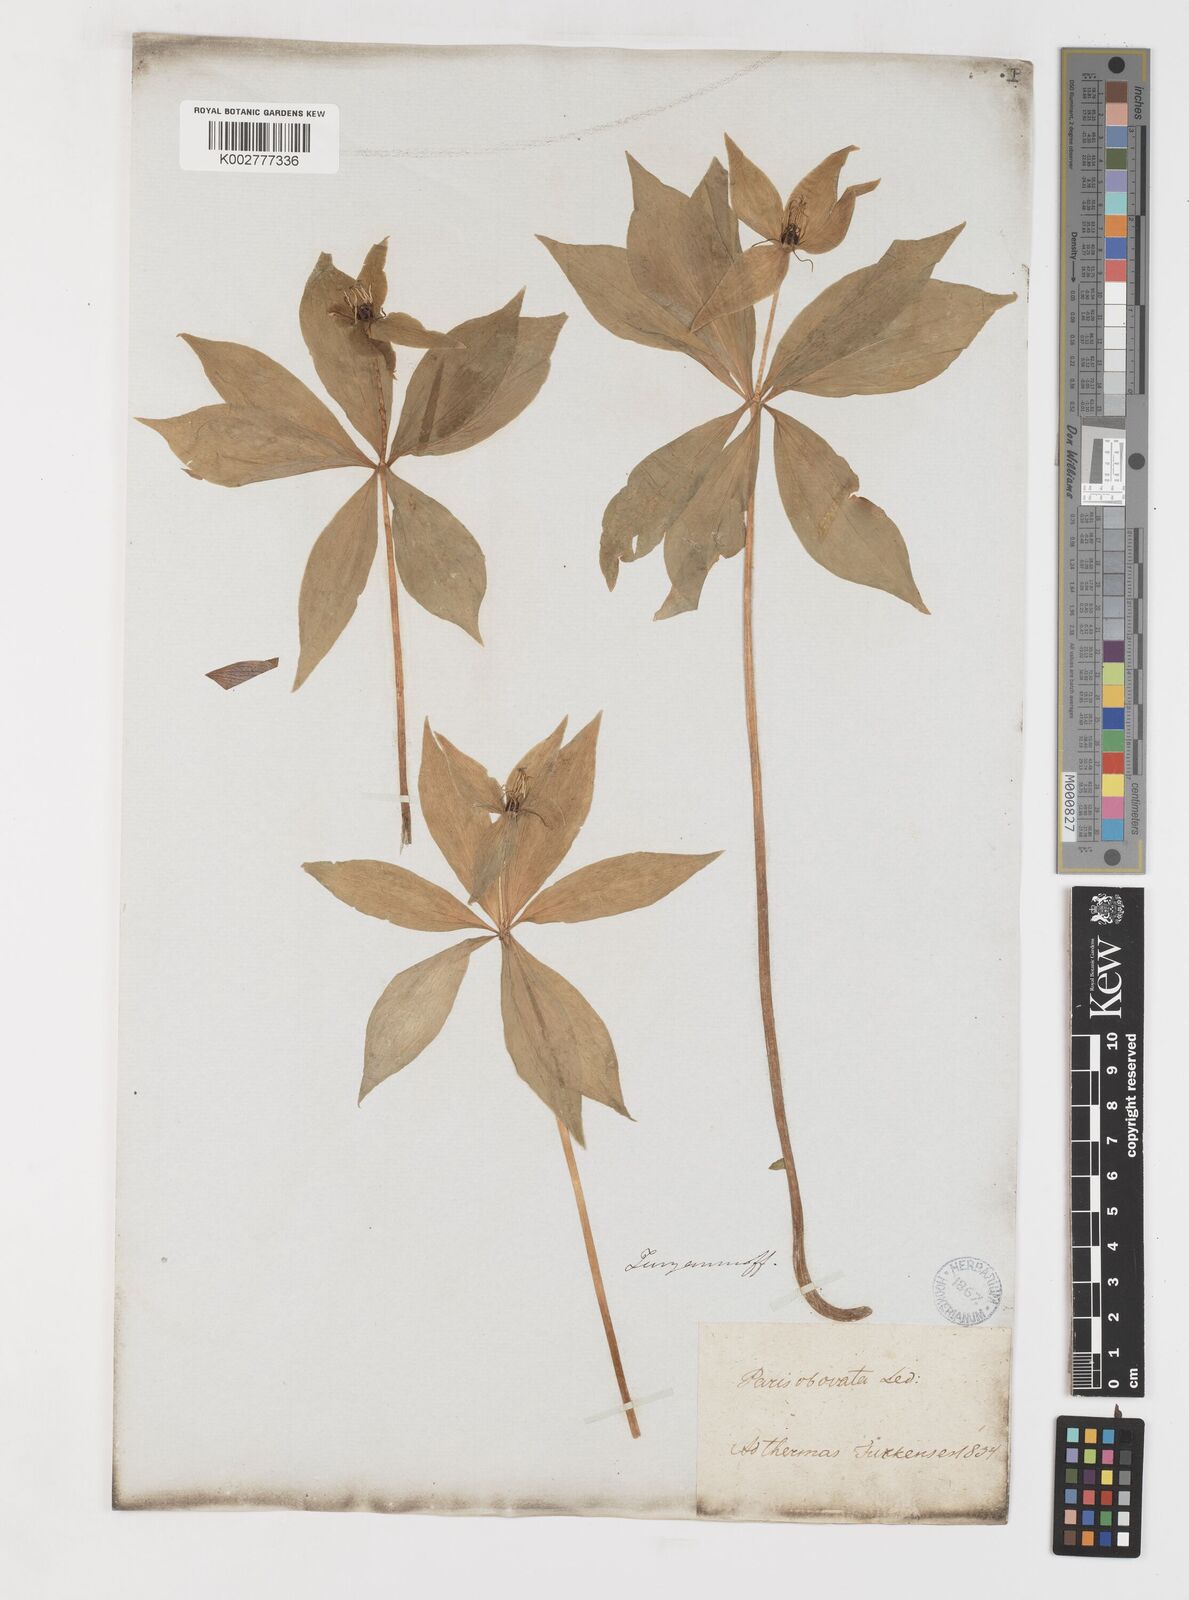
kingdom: Plantae
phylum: Tracheophyta
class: Liliopsida
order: Liliales
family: Melanthiaceae
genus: Paris
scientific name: Paris verticillata
